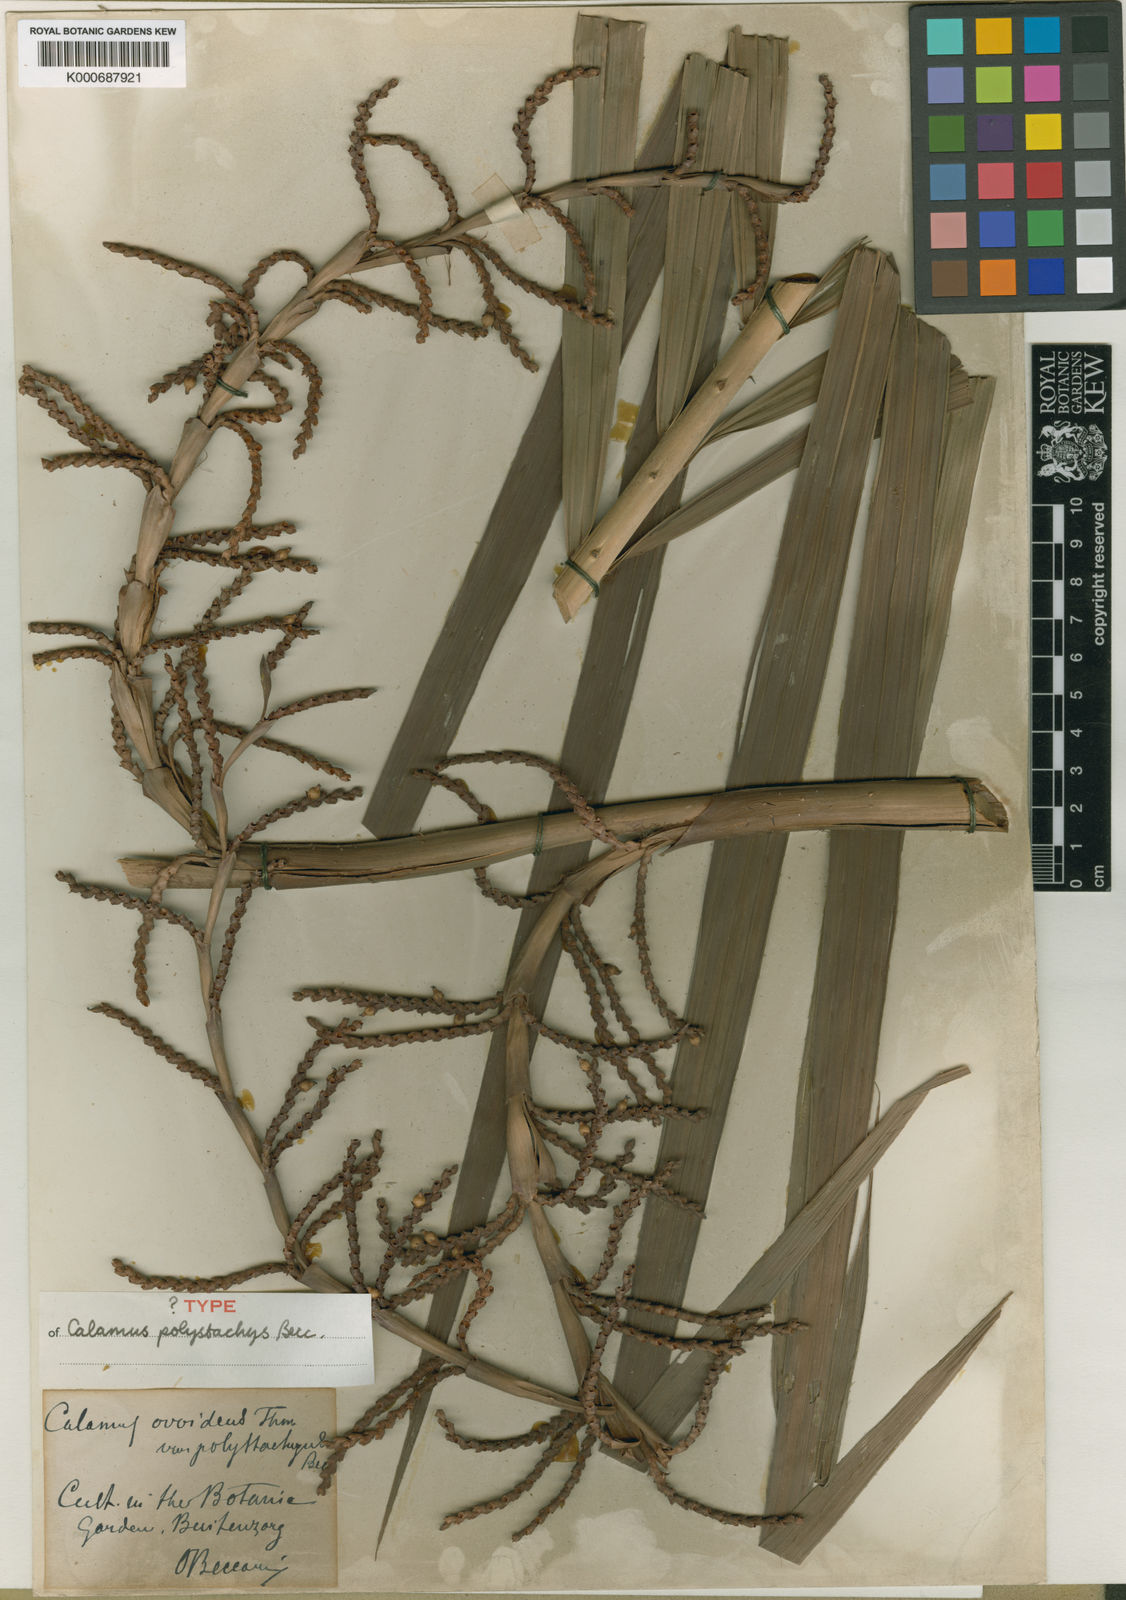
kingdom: Plantae
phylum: Tracheophyta
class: Liliopsida
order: Arecales
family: Arecaceae
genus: Calamus
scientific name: Calamus mirabilis
